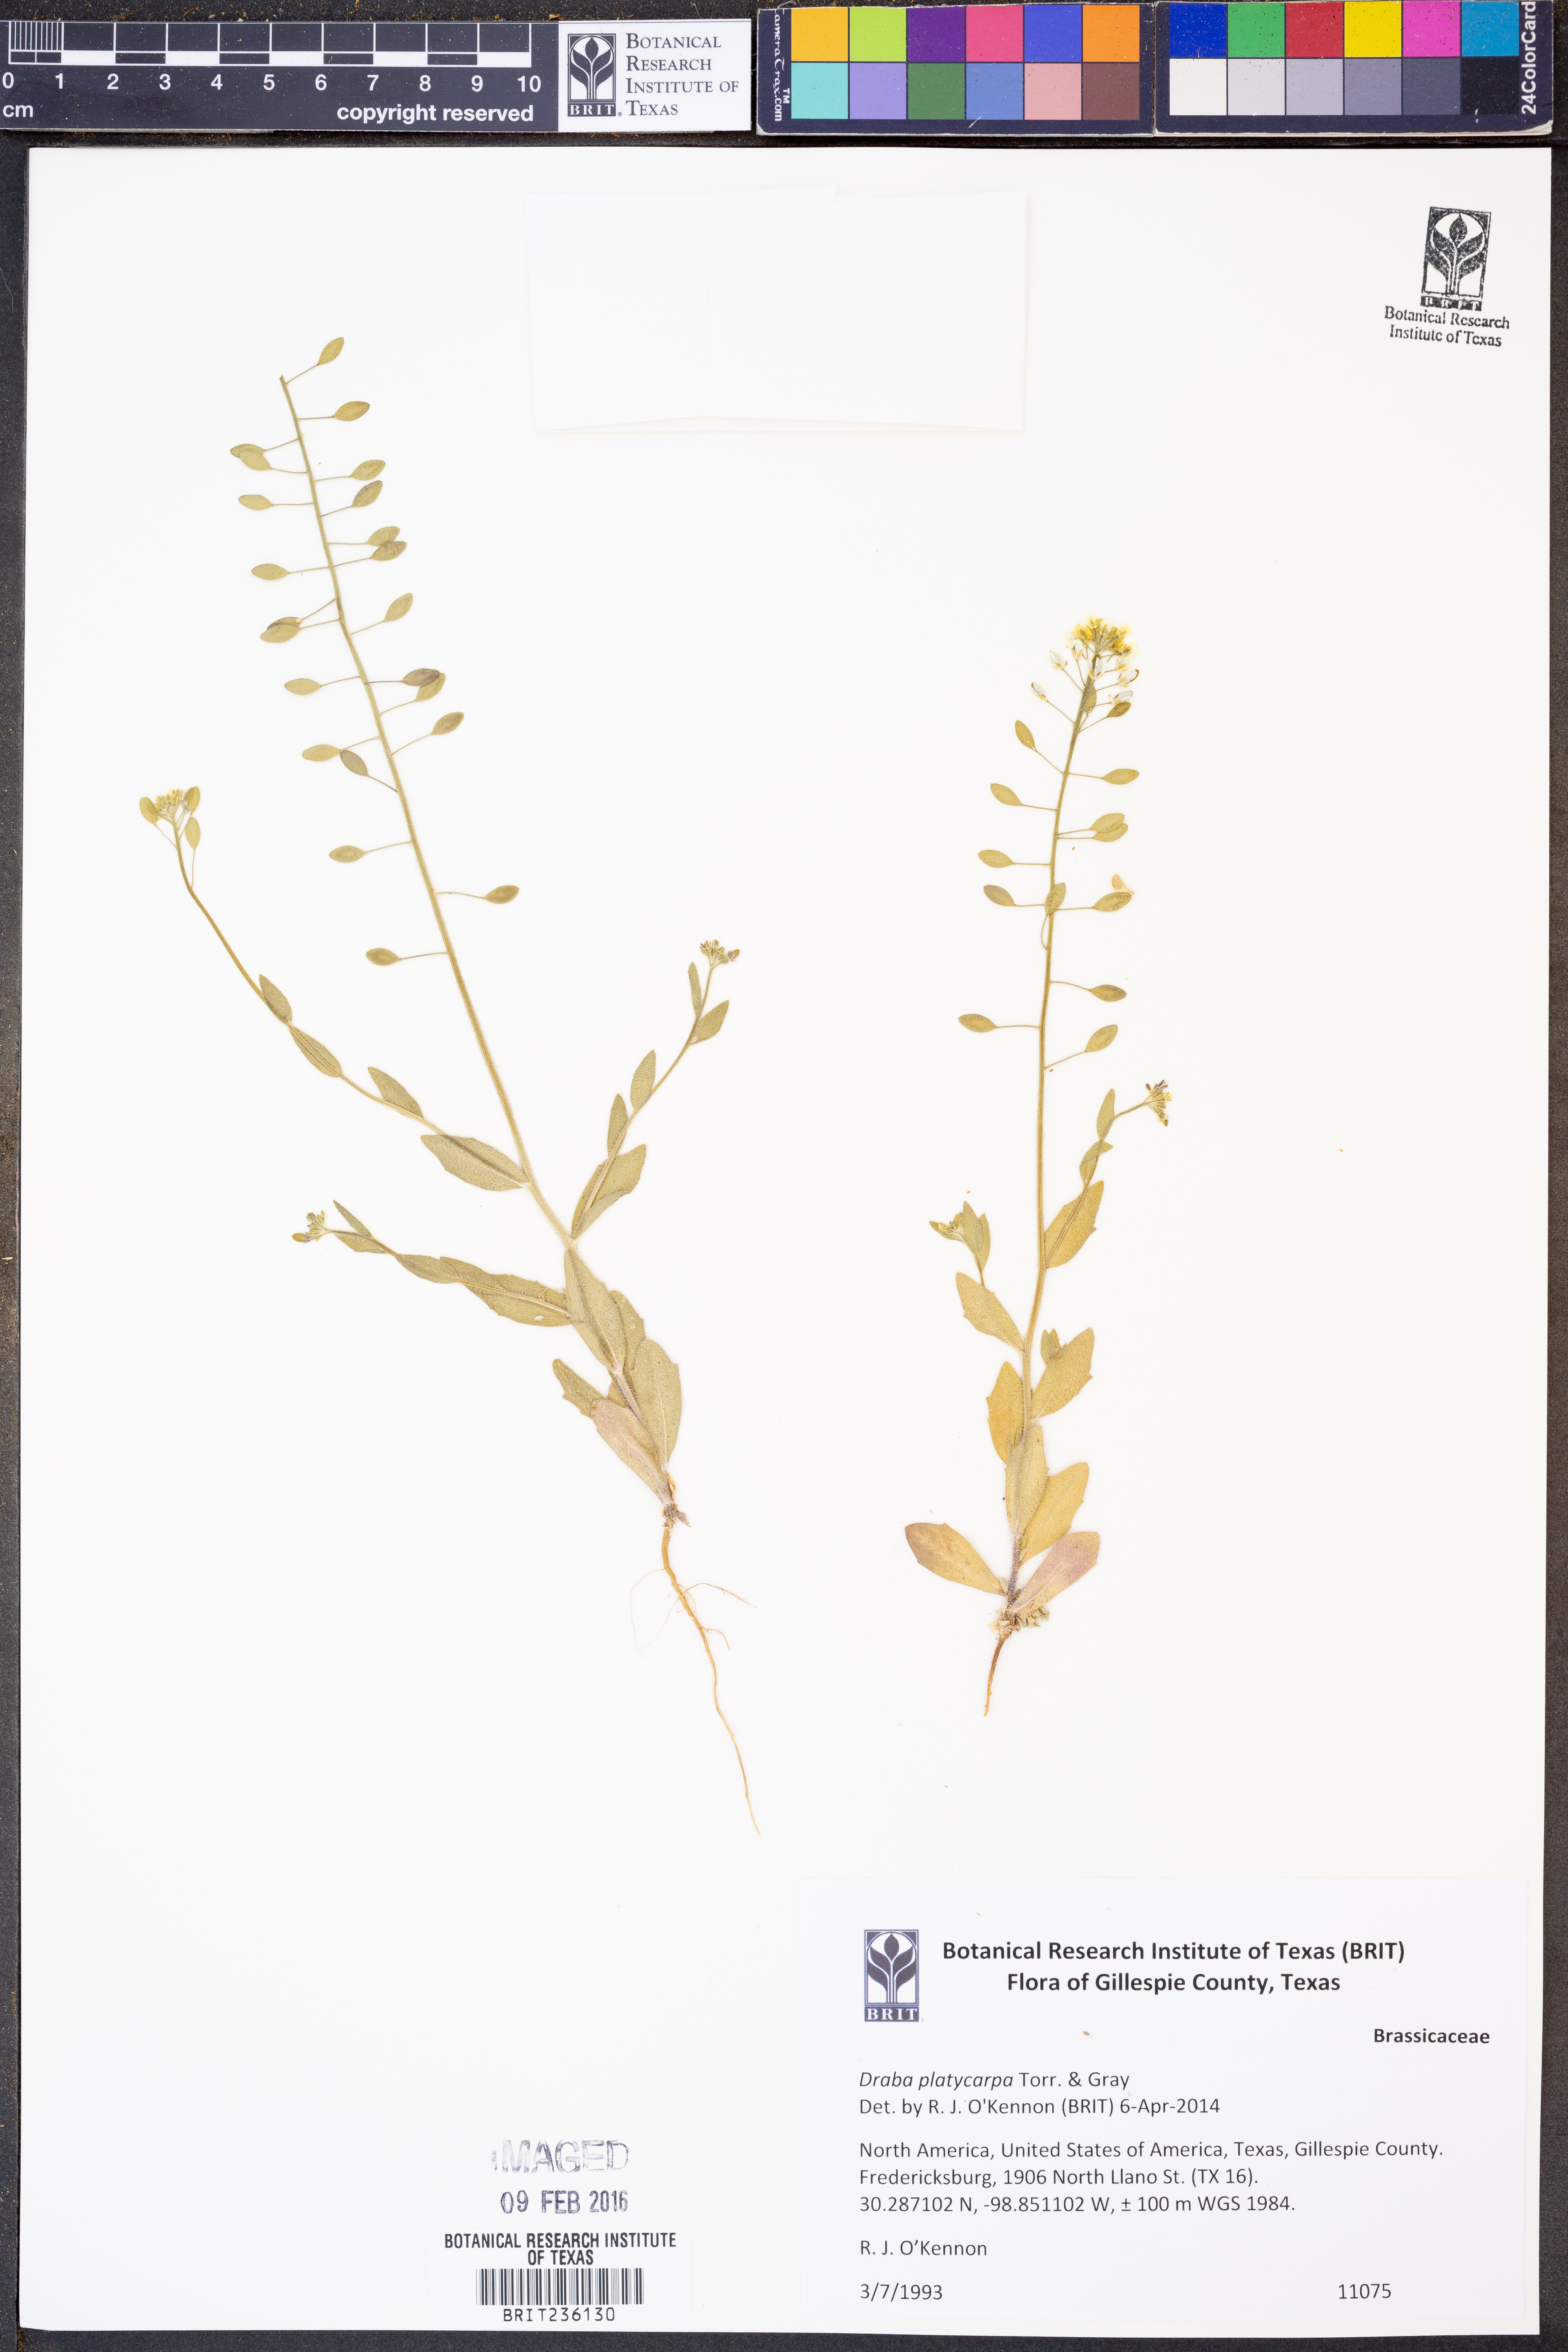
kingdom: Plantae
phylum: Tracheophyta
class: Magnoliopsida
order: Brassicales
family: Brassicaceae
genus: Tomostima
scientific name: Tomostima platycarpa
